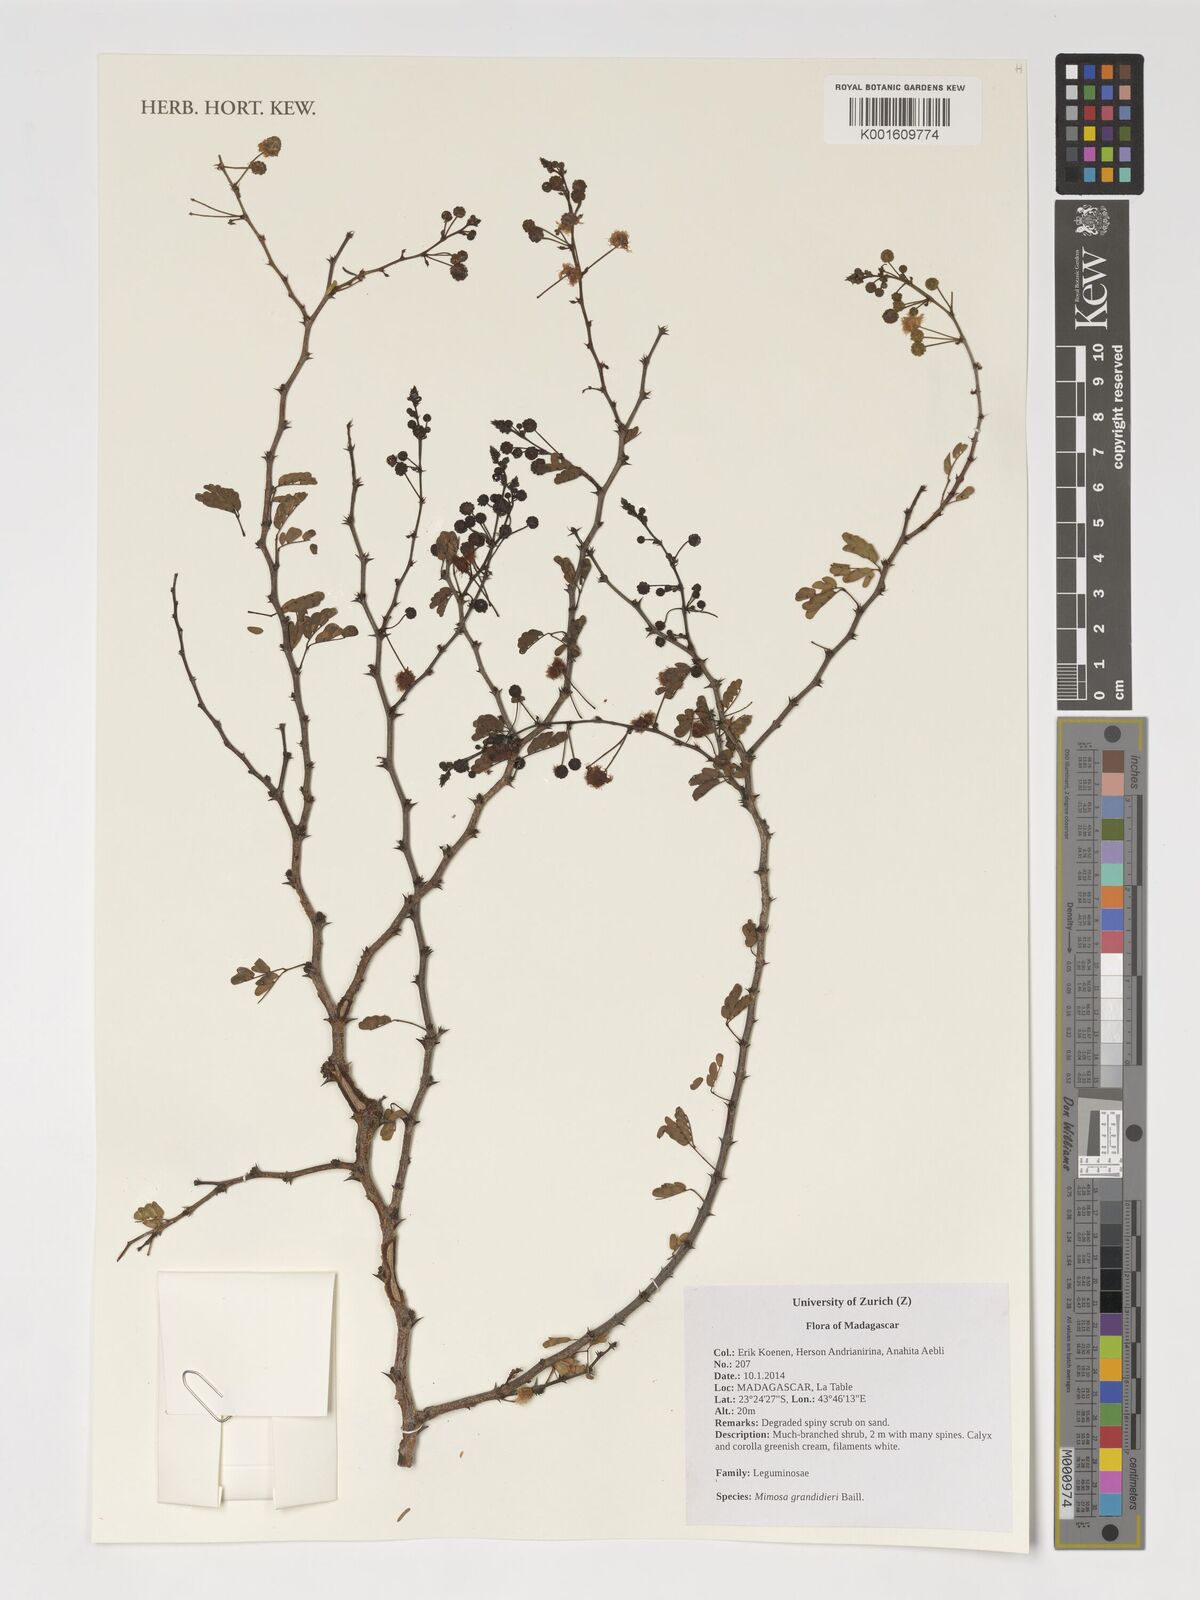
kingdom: Plantae
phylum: Tracheophyta
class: Magnoliopsida
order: Fabales
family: Fabaceae
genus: Mimosa
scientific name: Mimosa grandidieri
